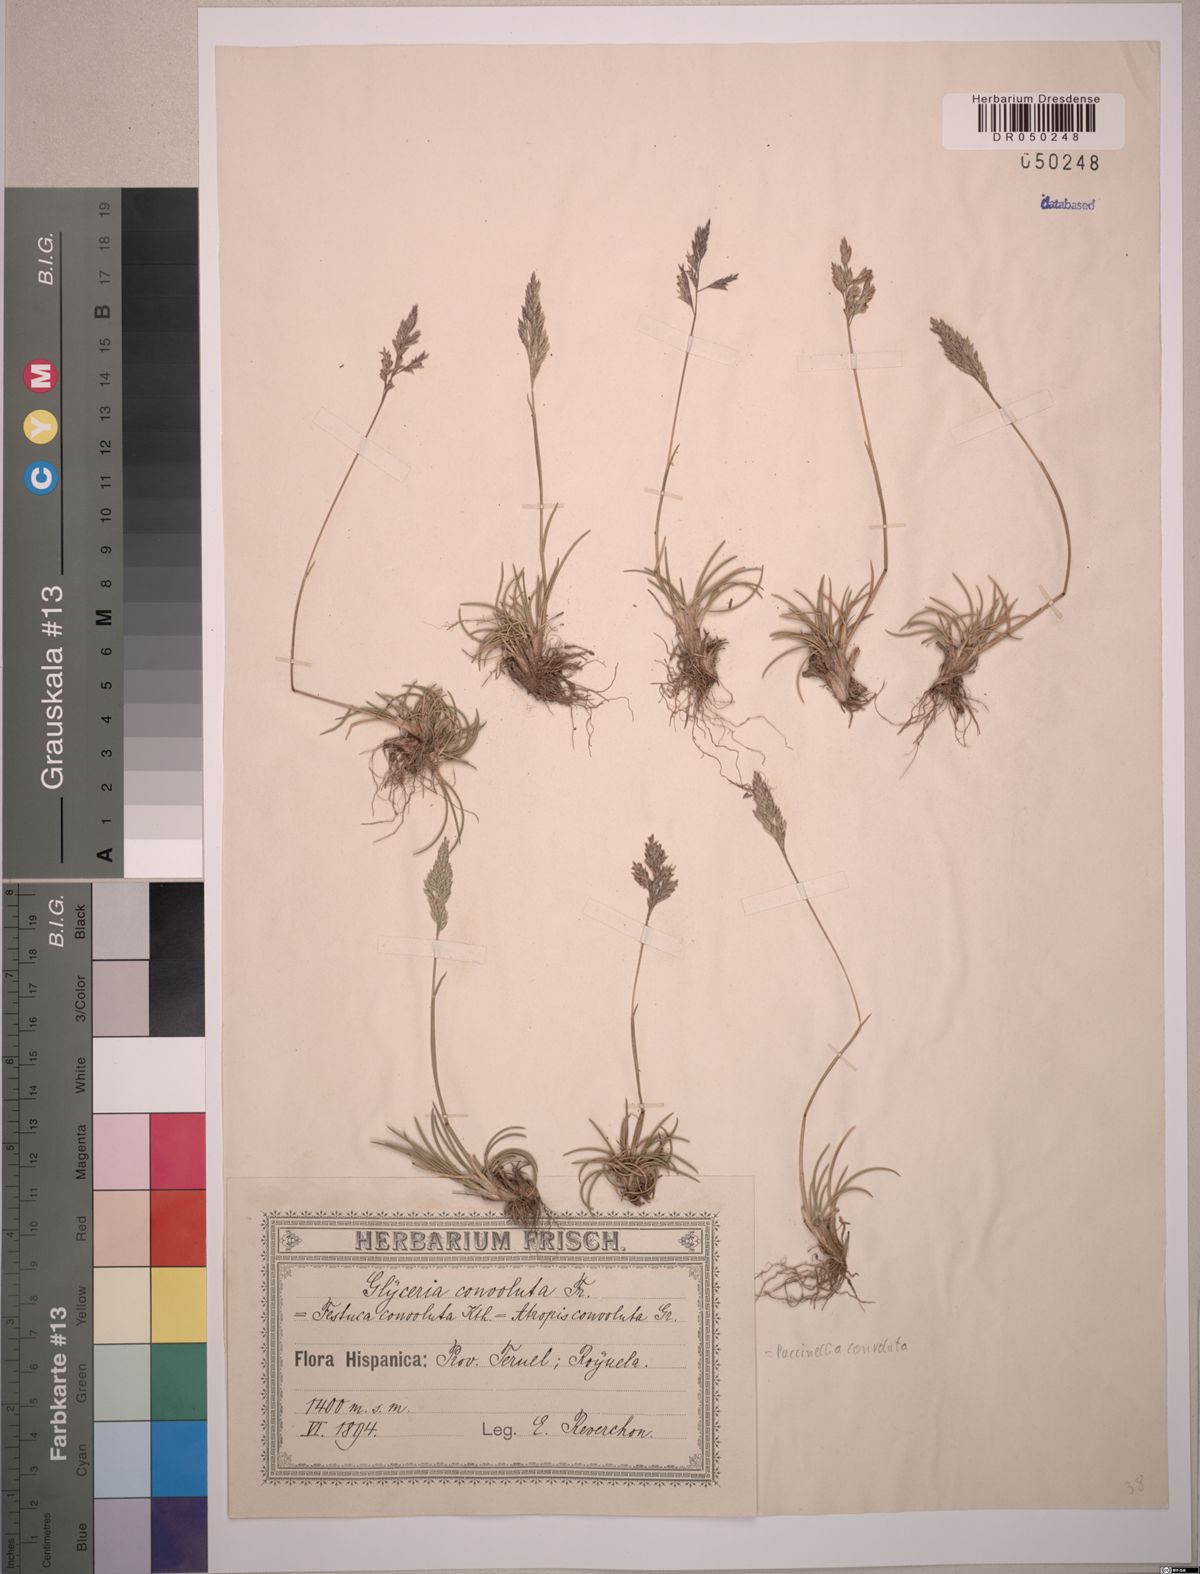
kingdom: Plantae
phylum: Tracheophyta
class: Liliopsida
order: Poales
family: Poaceae
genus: Puccinellia
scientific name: Puccinellia convoluta
